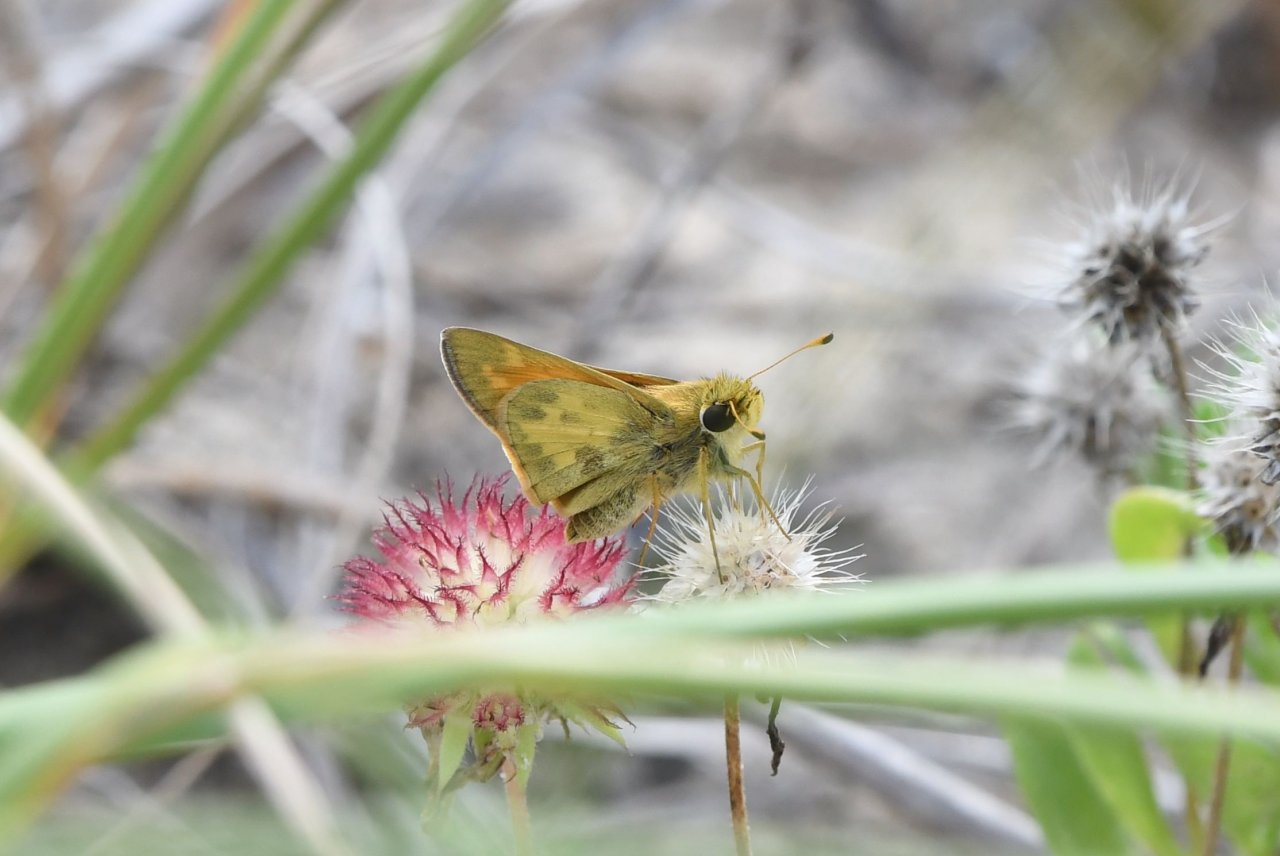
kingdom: Animalia
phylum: Arthropoda
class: Insecta
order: Lepidoptera
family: Hesperiidae
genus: Atalopedes
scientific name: Atalopedes campestris
